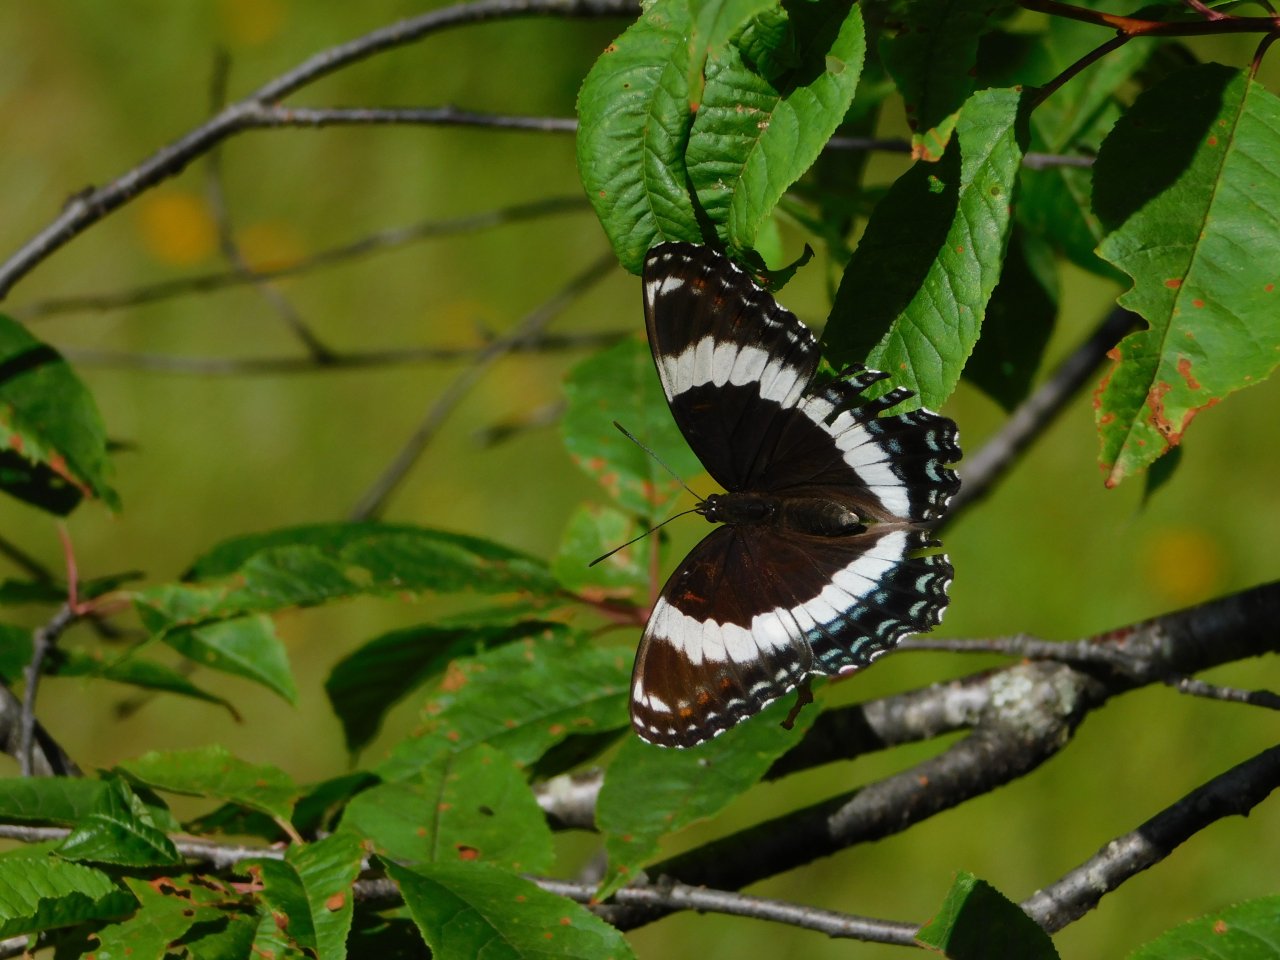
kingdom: Animalia
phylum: Arthropoda
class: Insecta
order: Lepidoptera
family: Nymphalidae
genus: Limenitis
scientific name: Limenitis arthemis
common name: Red-spotted Admiral
